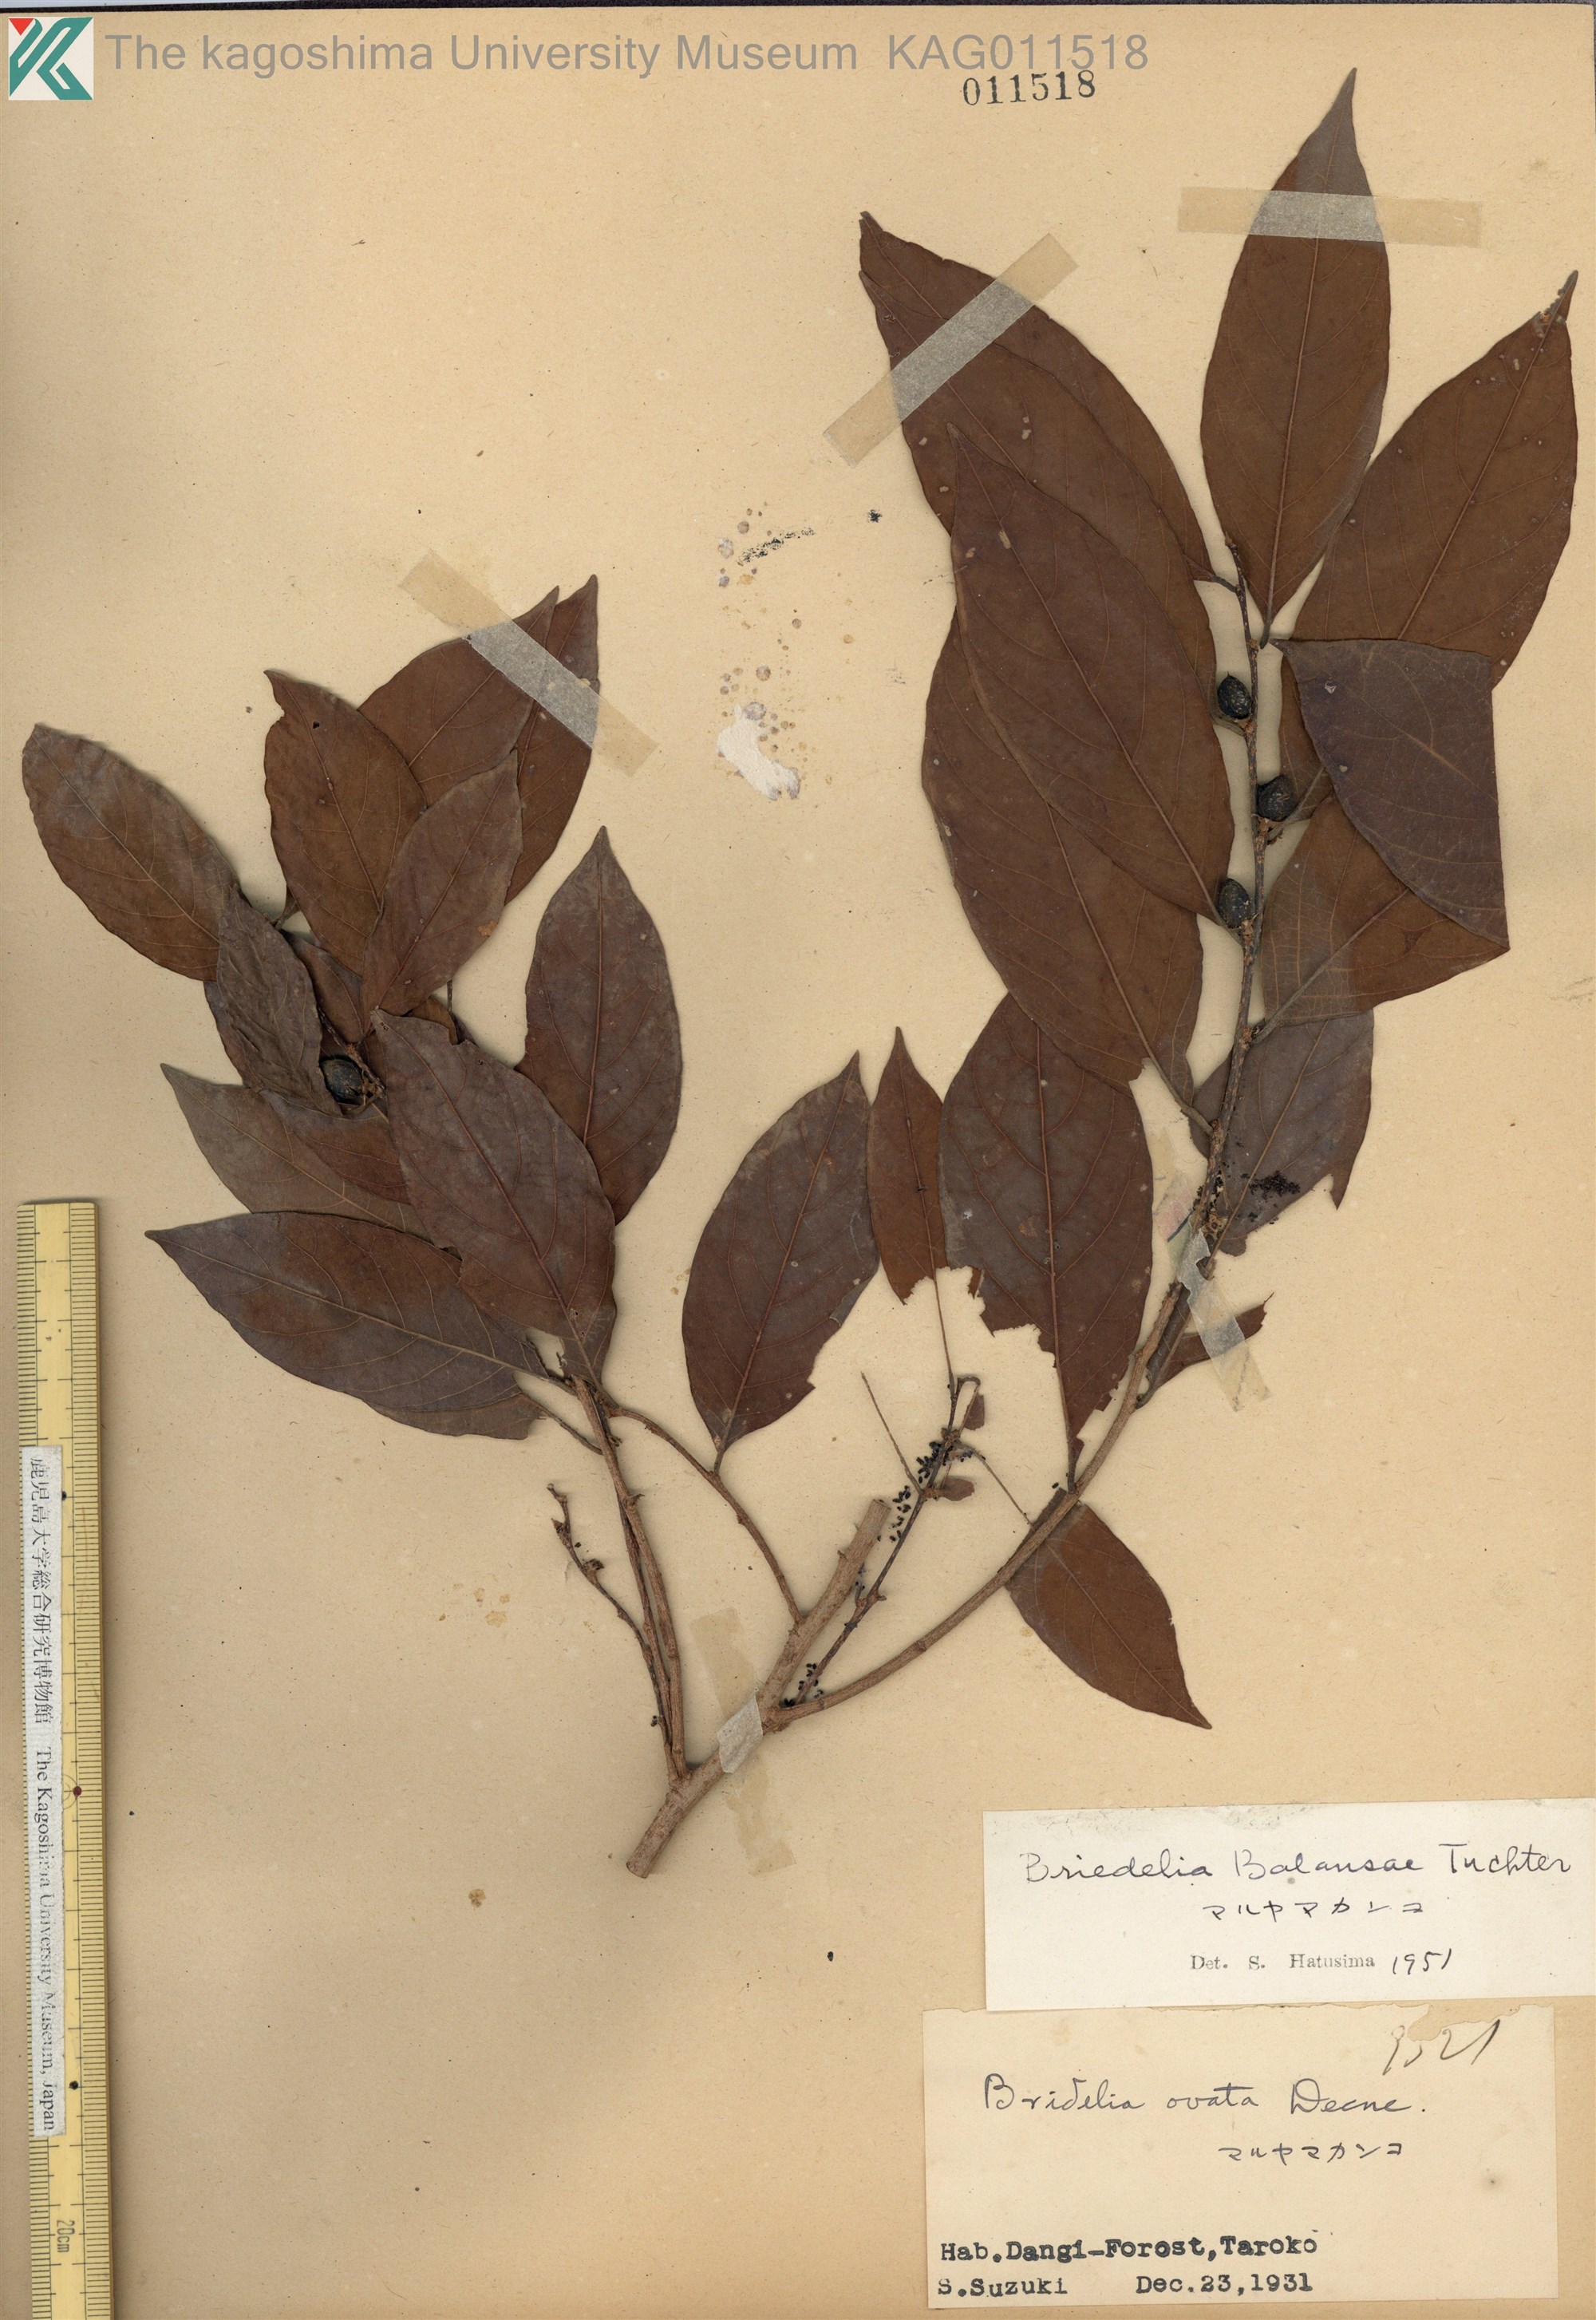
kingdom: Plantae
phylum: Tracheophyta
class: Magnoliopsida
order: Malpighiales
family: Phyllanthaceae
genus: Bridelia
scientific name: Bridelia balansae
